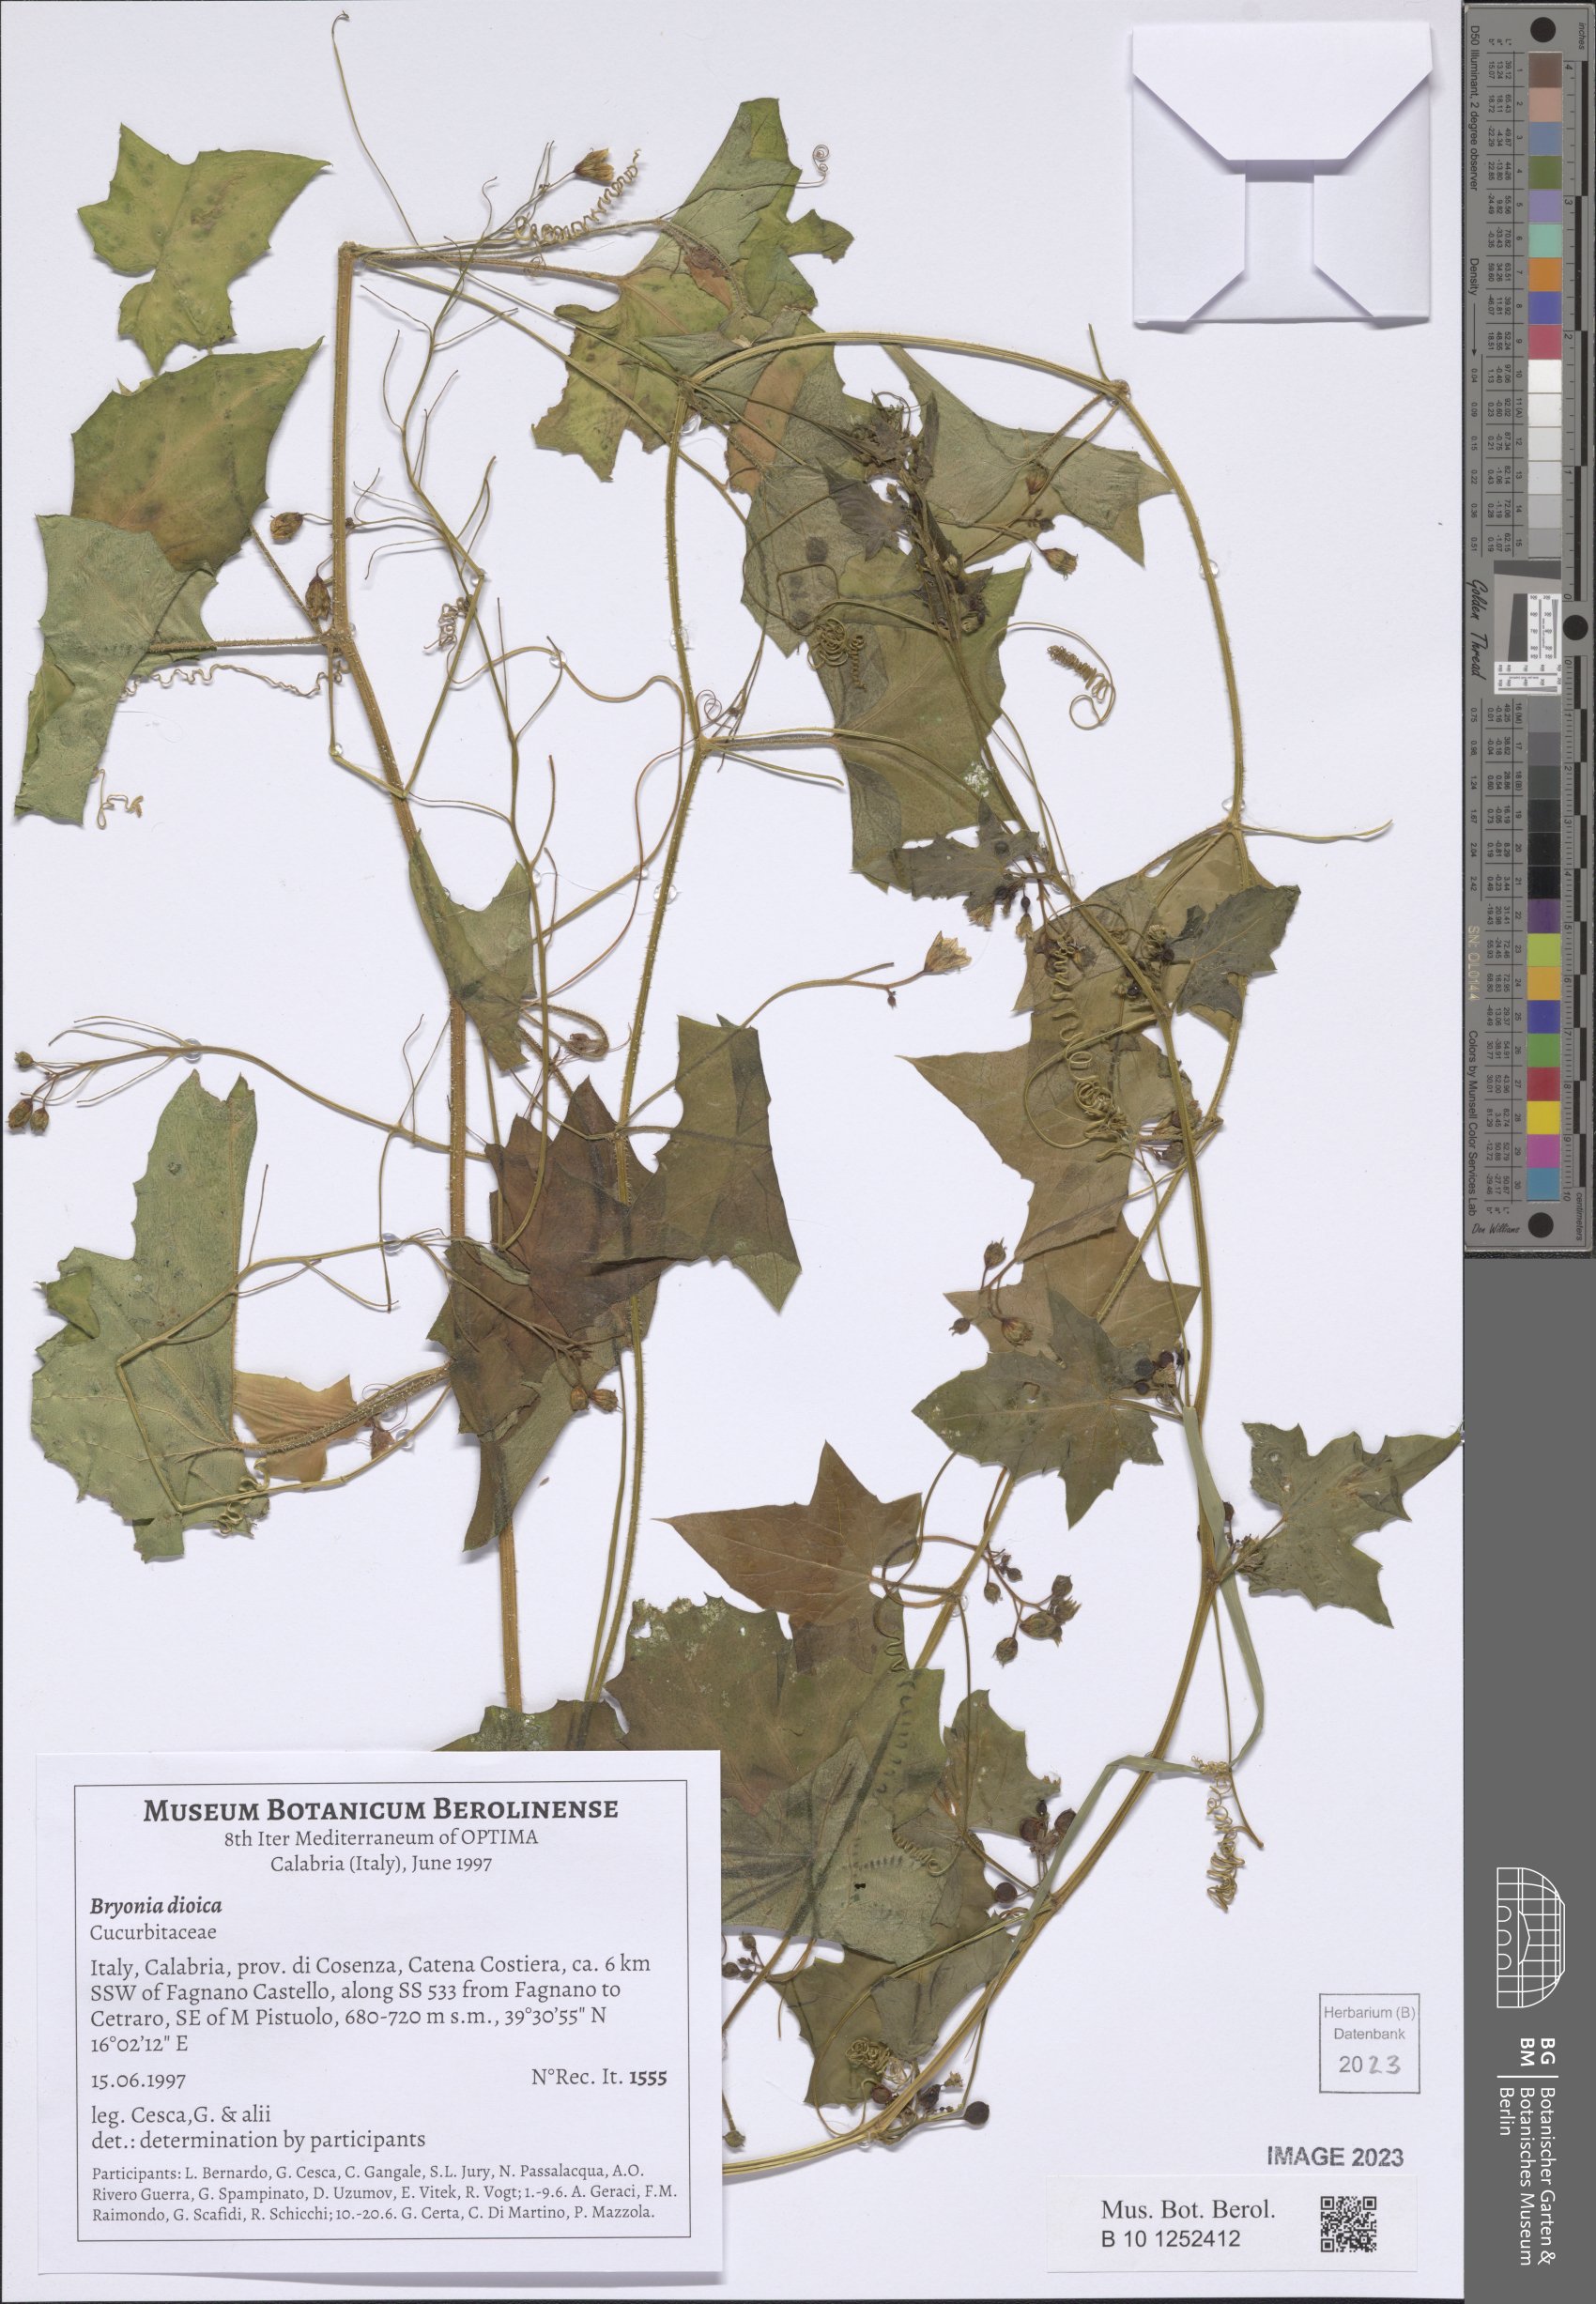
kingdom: Plantae
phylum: Tracheophyta
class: Magnoliopsida
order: Cucurbitales
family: Cucurbitaceae
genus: Bryonia
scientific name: Bryonia dioica
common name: White bryony
